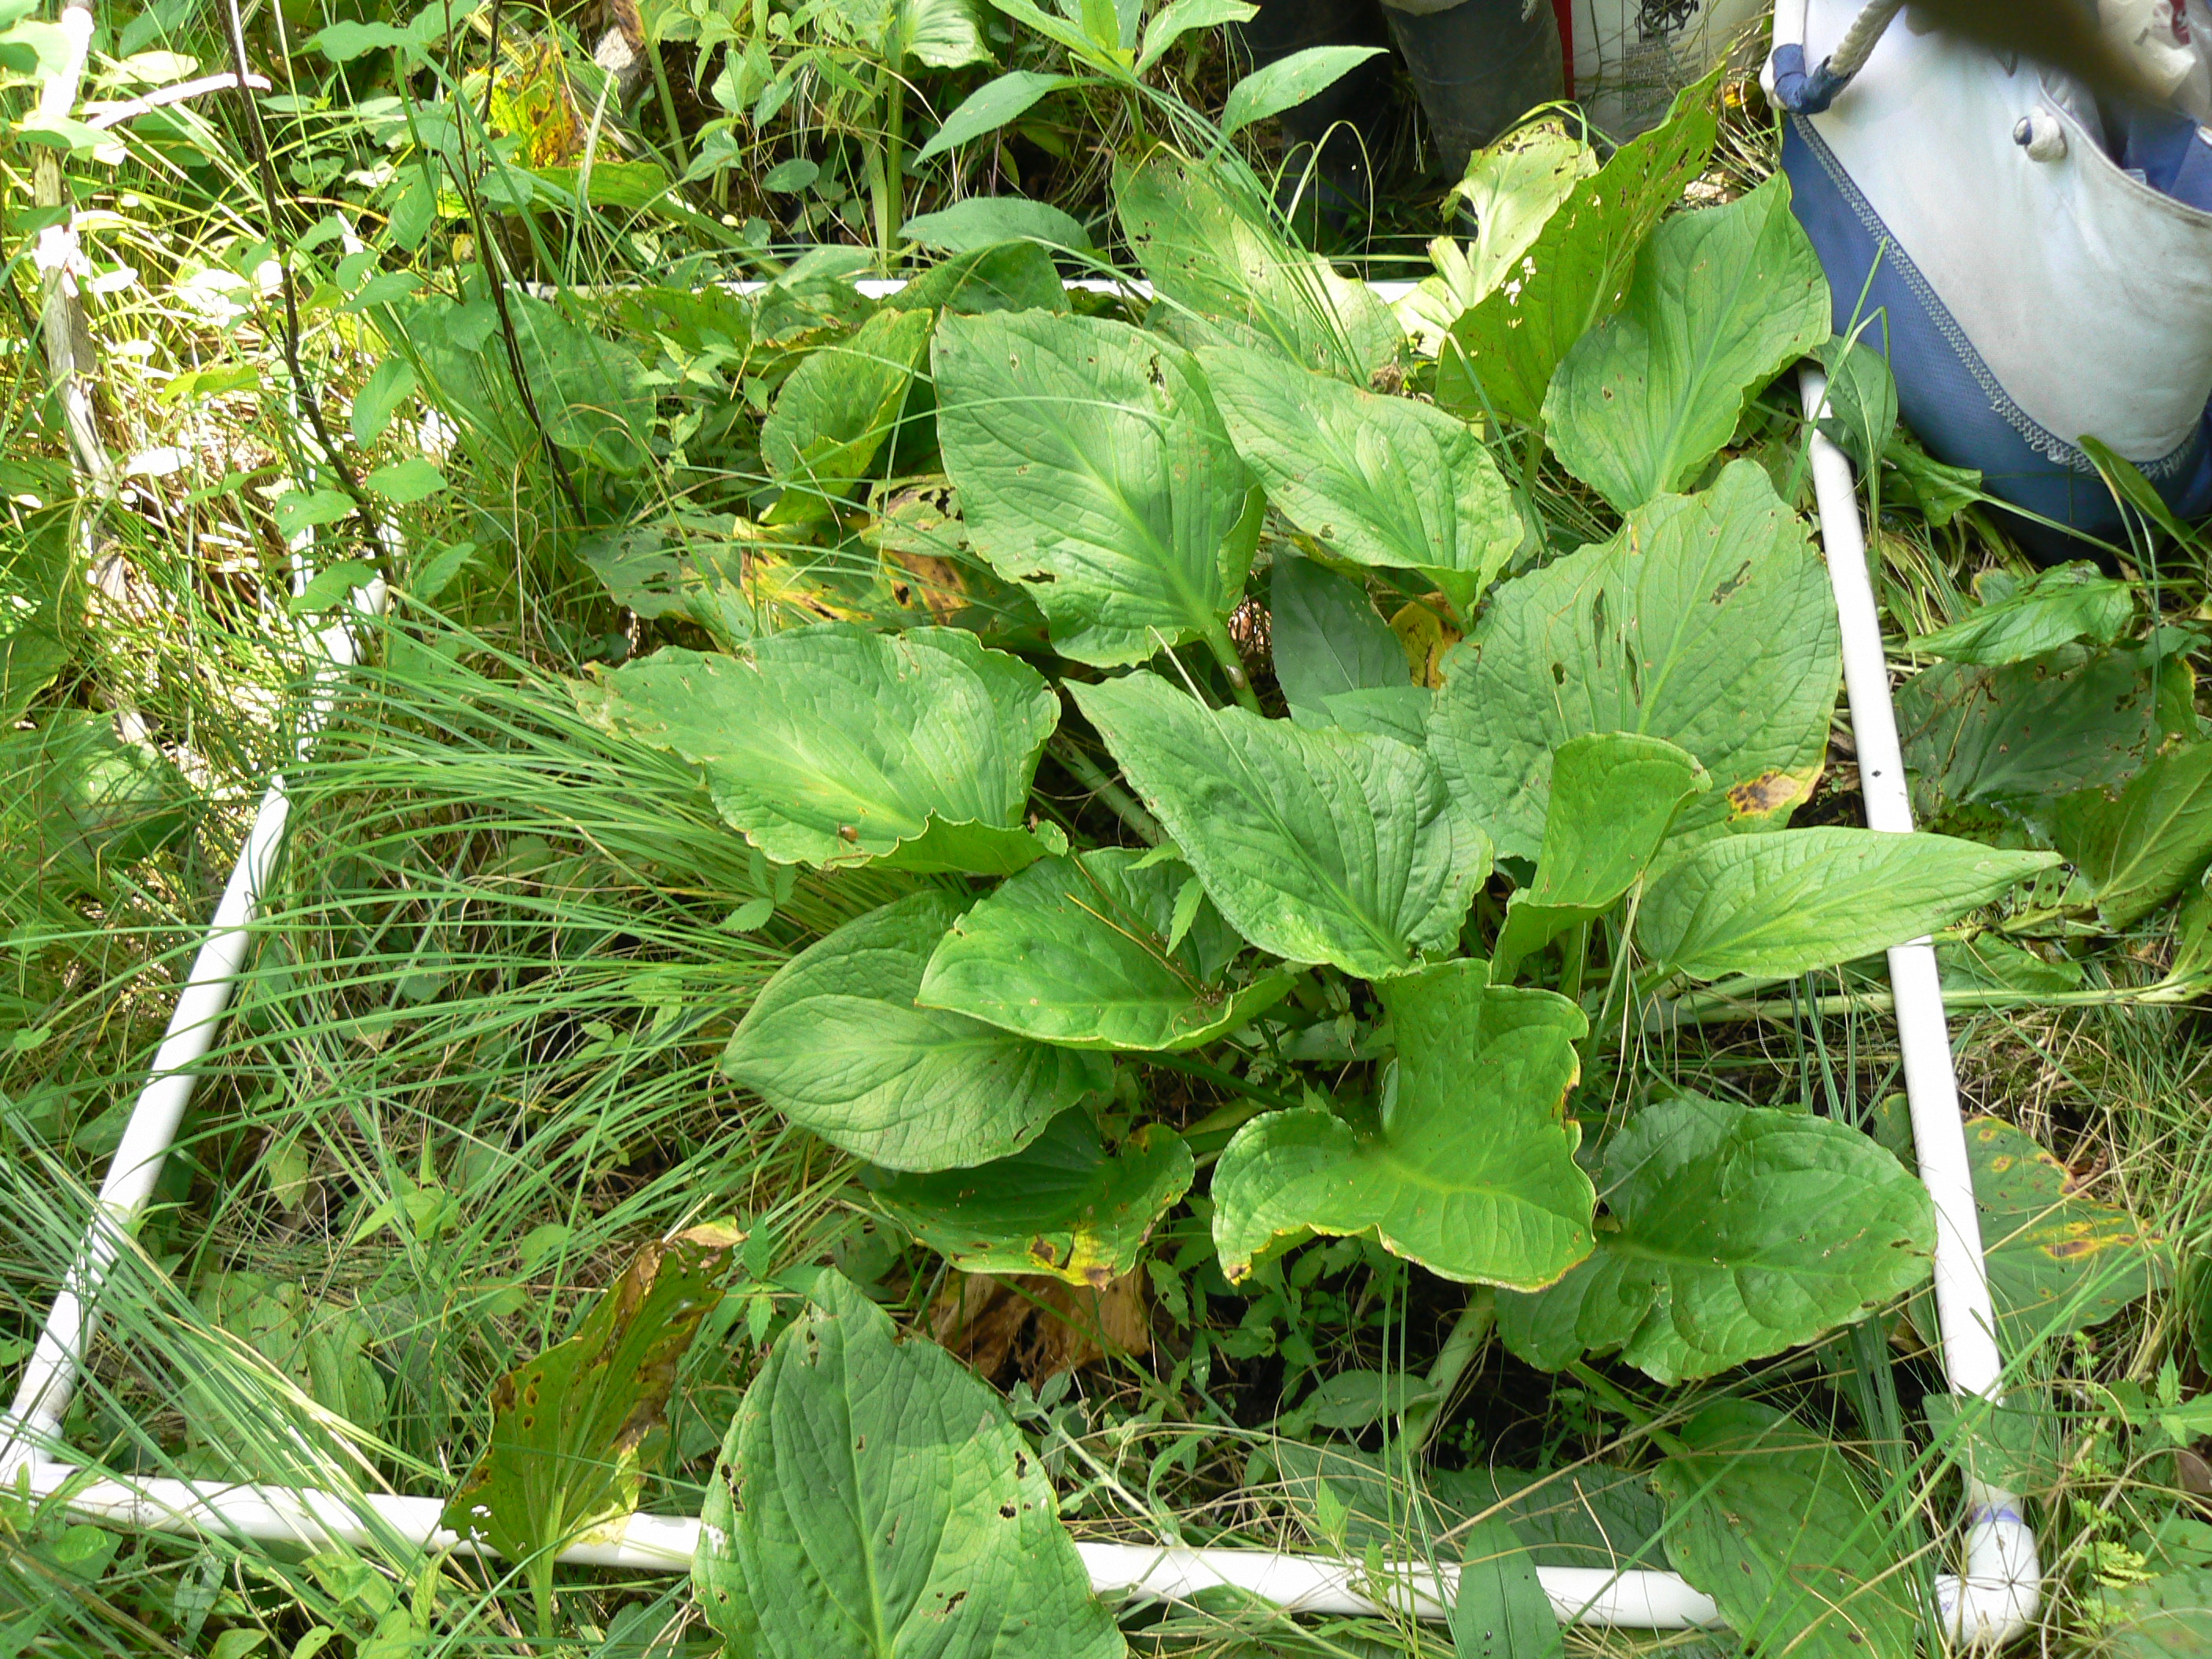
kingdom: Plantae
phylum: Tracheophyta
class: Magnoliopsida
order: Rosales
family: Rosaceae
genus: Rubus
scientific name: Rubus pubescens
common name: Dwarf raspberry
